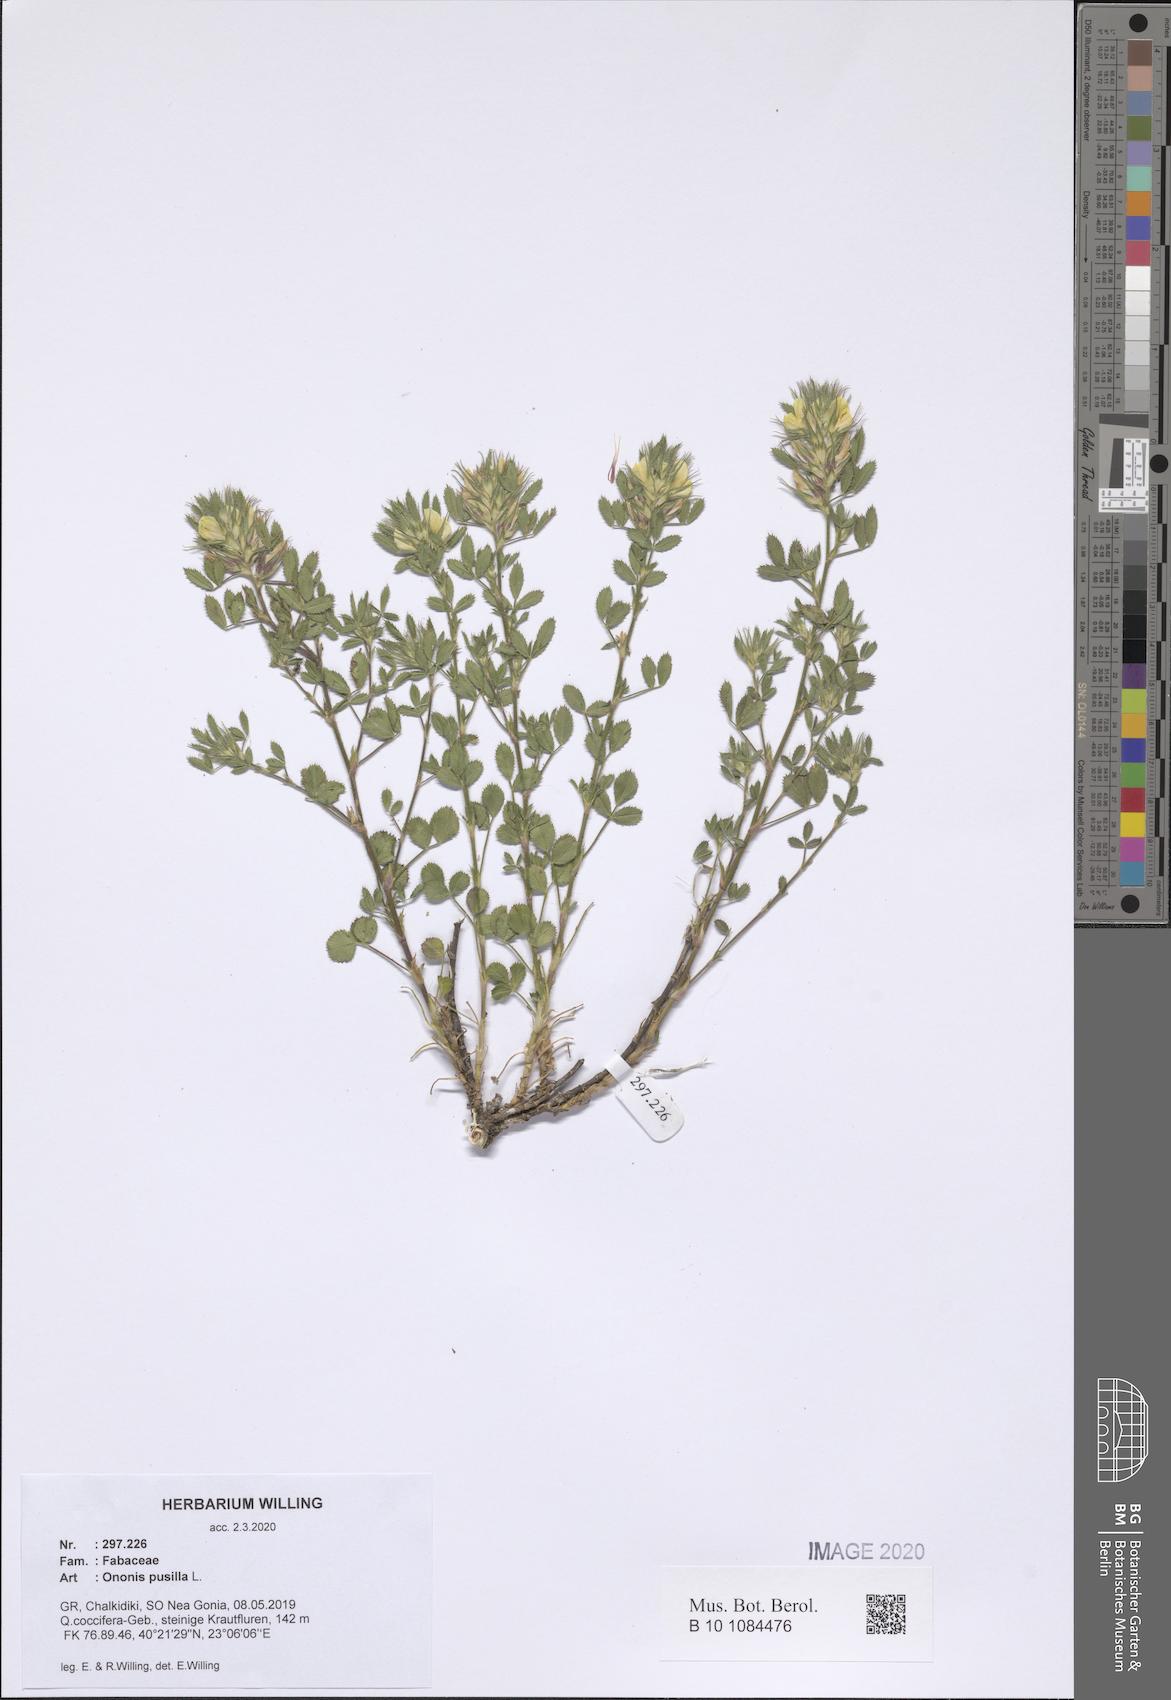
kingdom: Plantae
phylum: Tracheophyta
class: Magnoliopsida
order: Fabales
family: Fabaceae
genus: Ononis
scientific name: Ononis pusilla
